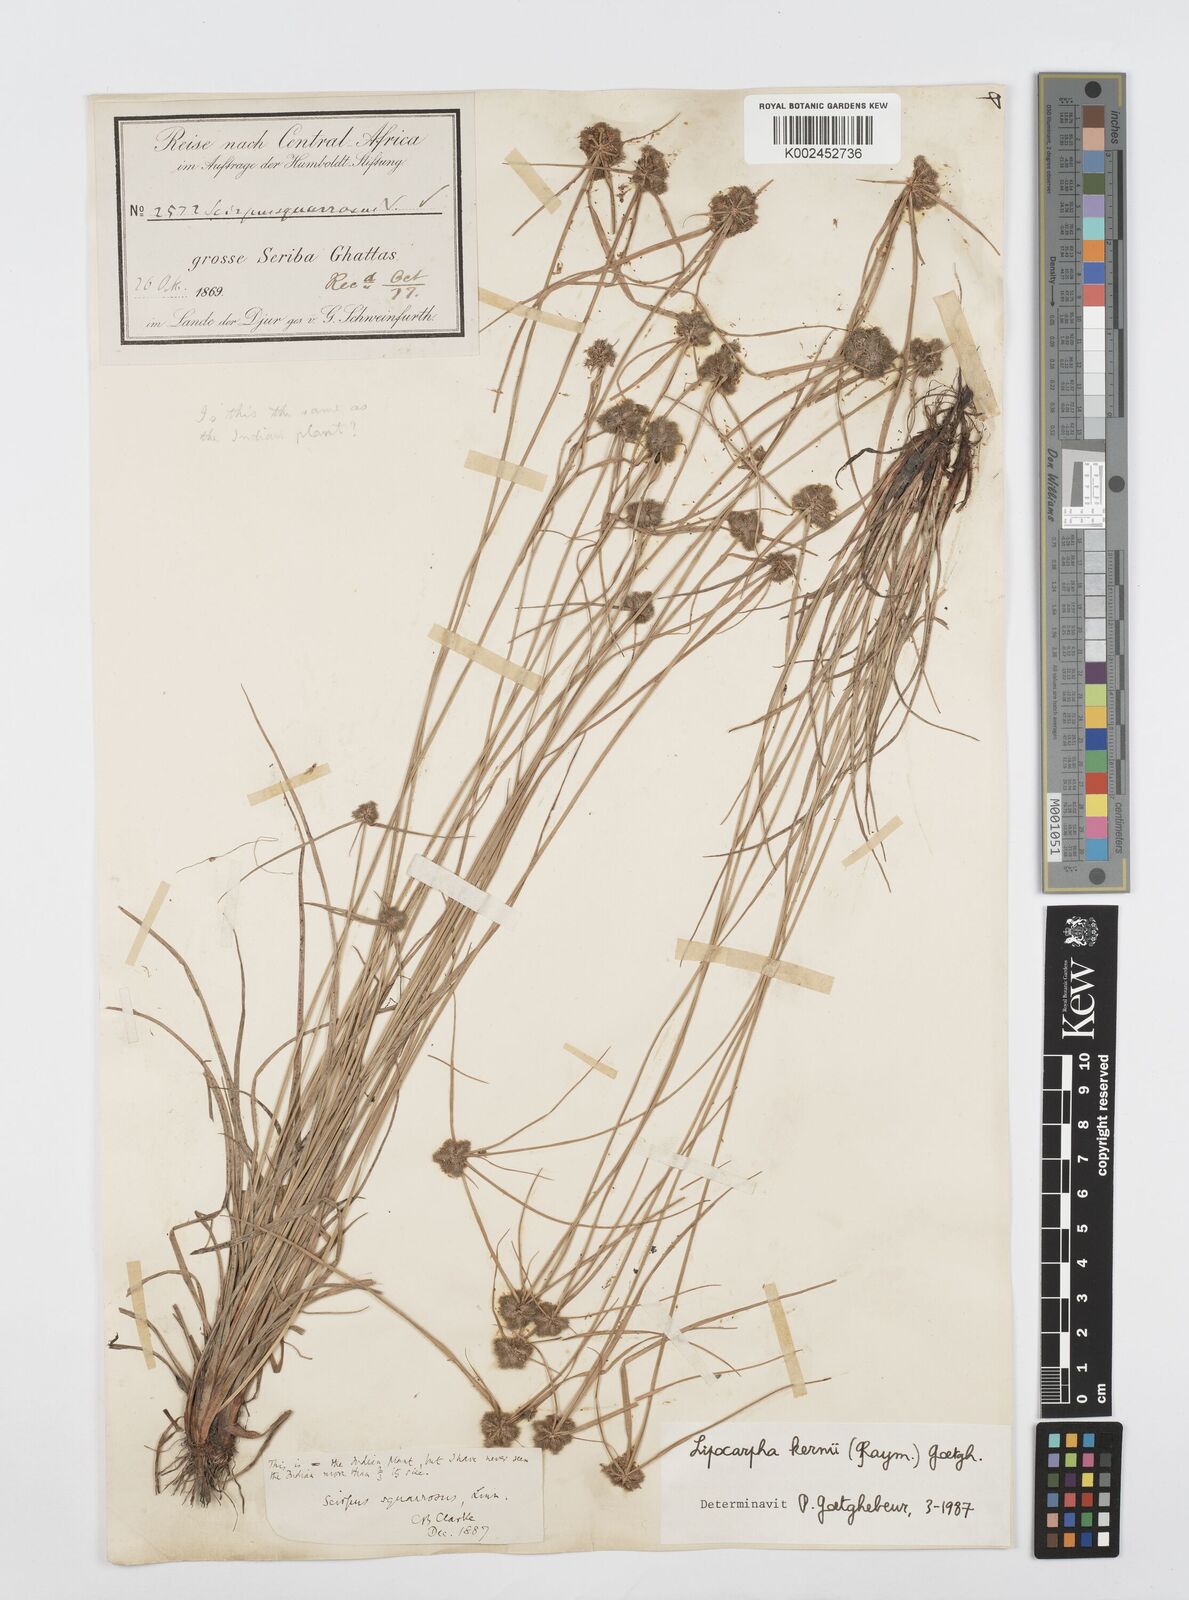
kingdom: Plantae
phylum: Tracheophyta
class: Liliopsida
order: Poales
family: Cyperaceae
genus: Cyperus
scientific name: Cyperus kernii
